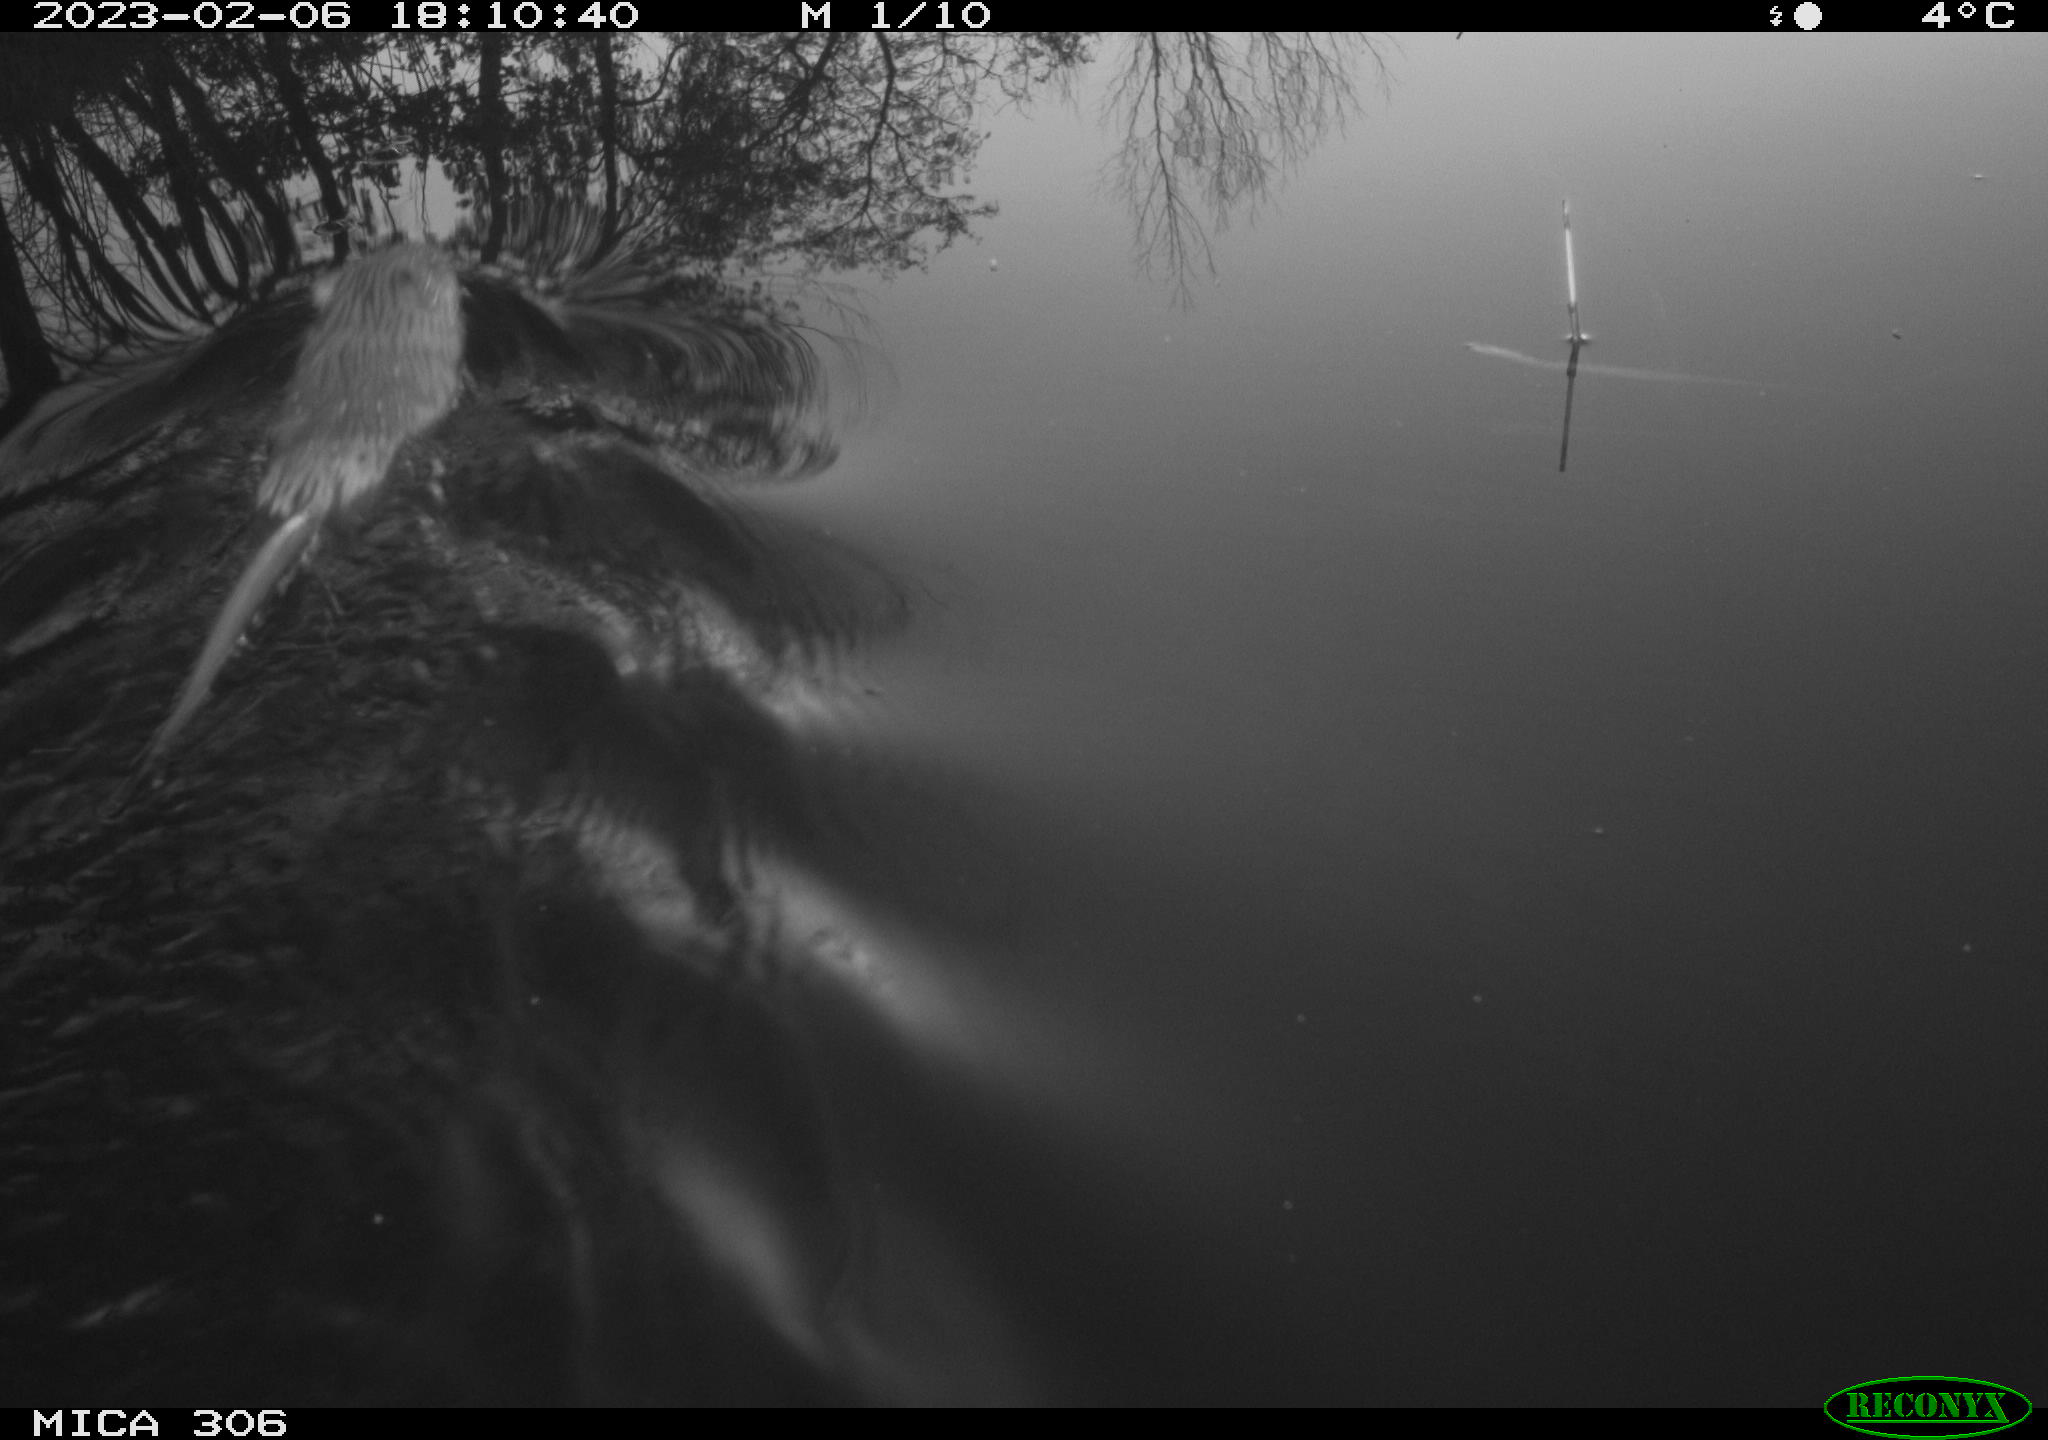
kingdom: Animalia
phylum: Chordata
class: Mammalia
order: Rodentia
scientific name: Rodentia
